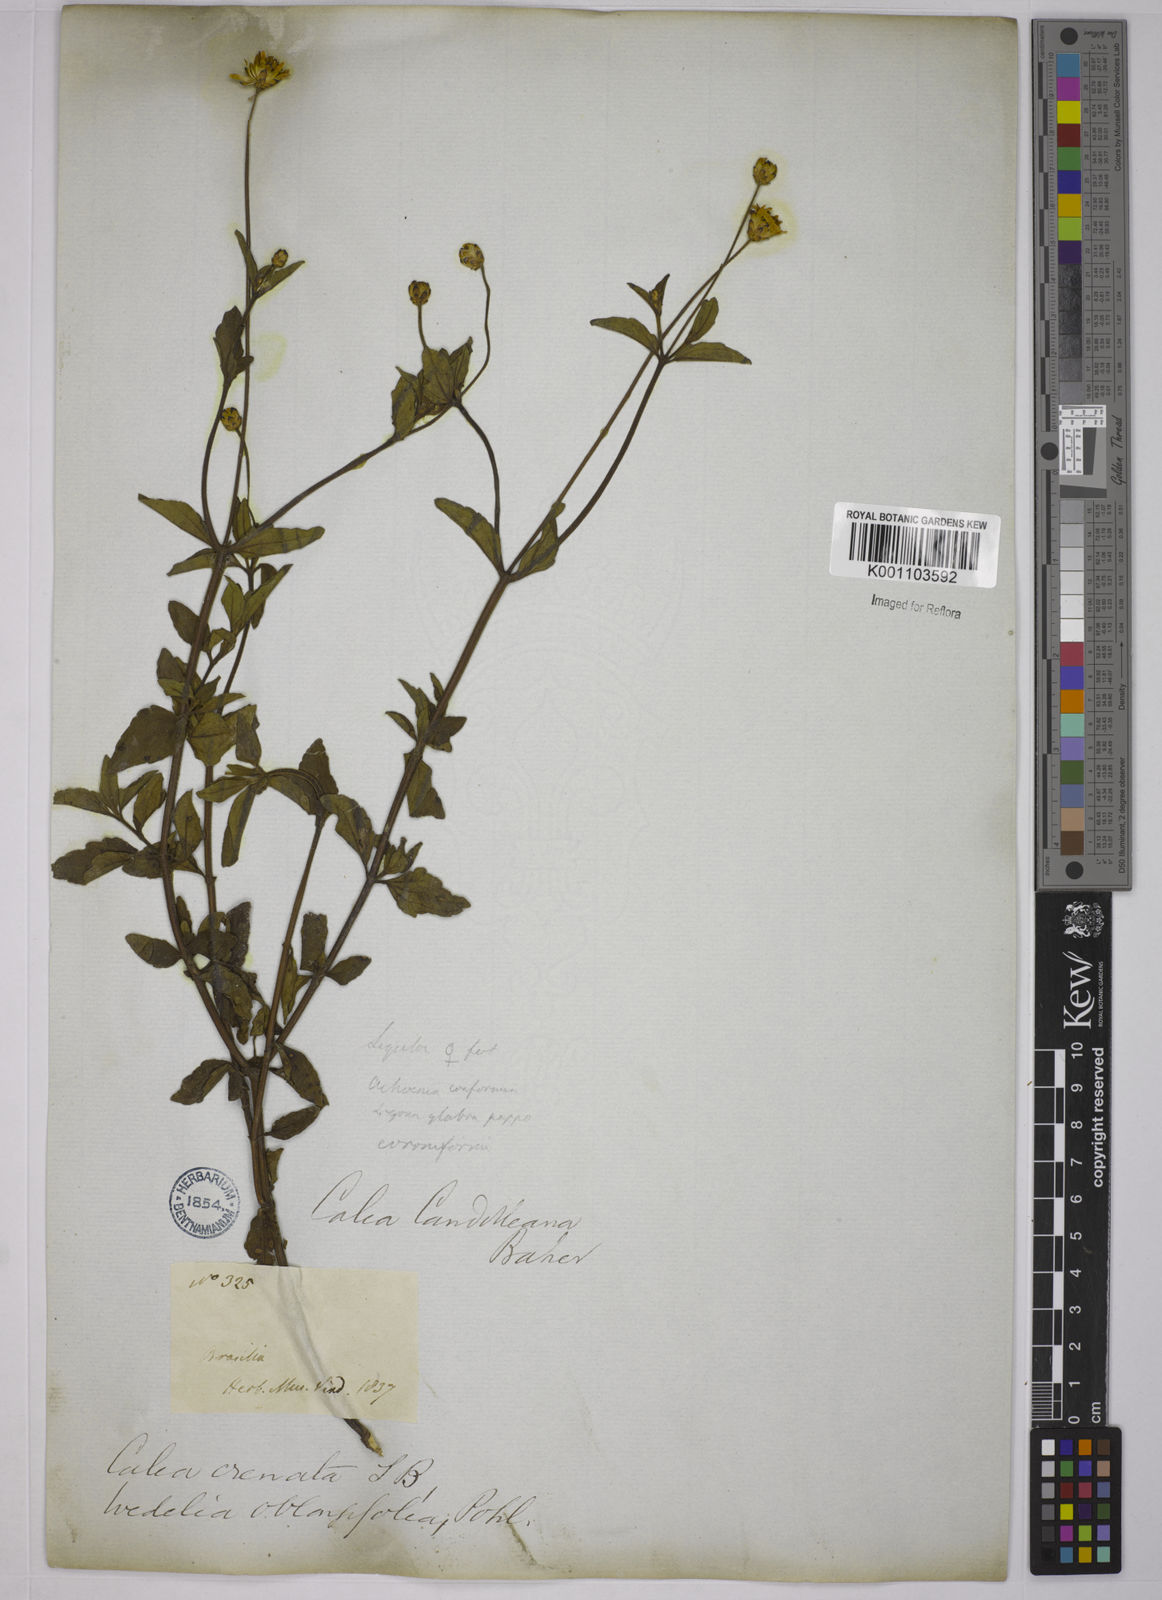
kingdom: Plantae
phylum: Tracheophyta
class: Magnoliopsida
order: Asterales
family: Asteraceae
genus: Calea
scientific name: Calea candolleana
